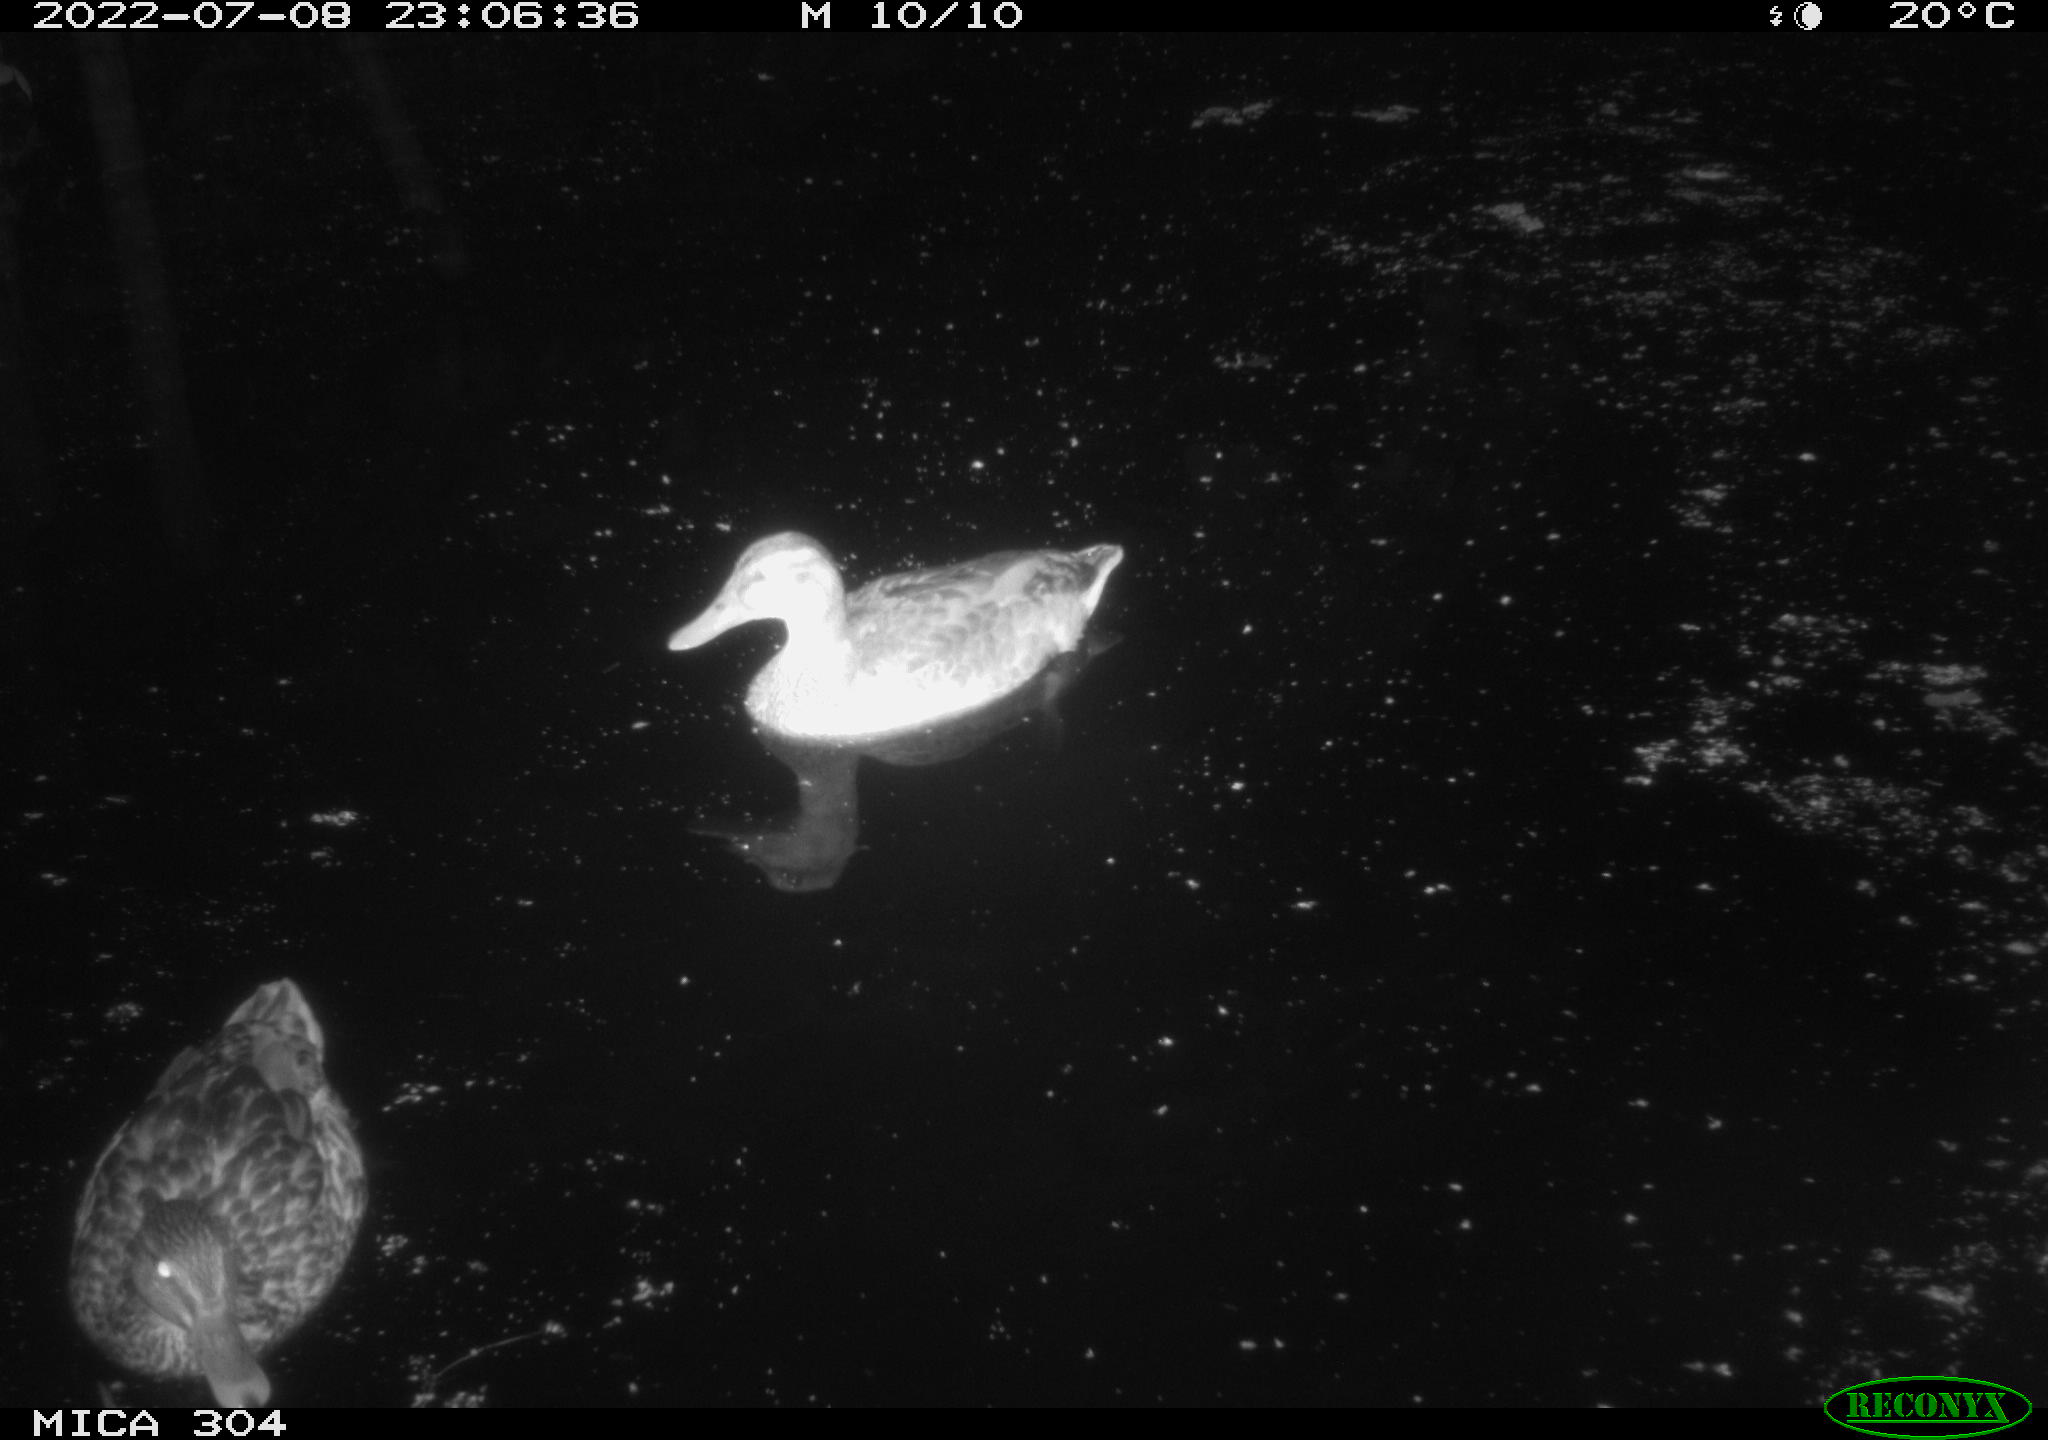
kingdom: Animalia
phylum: Chordata
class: Aves
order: Anseriformes
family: Anatidae
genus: Mareca
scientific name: Mareca strepera
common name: Gadwall
